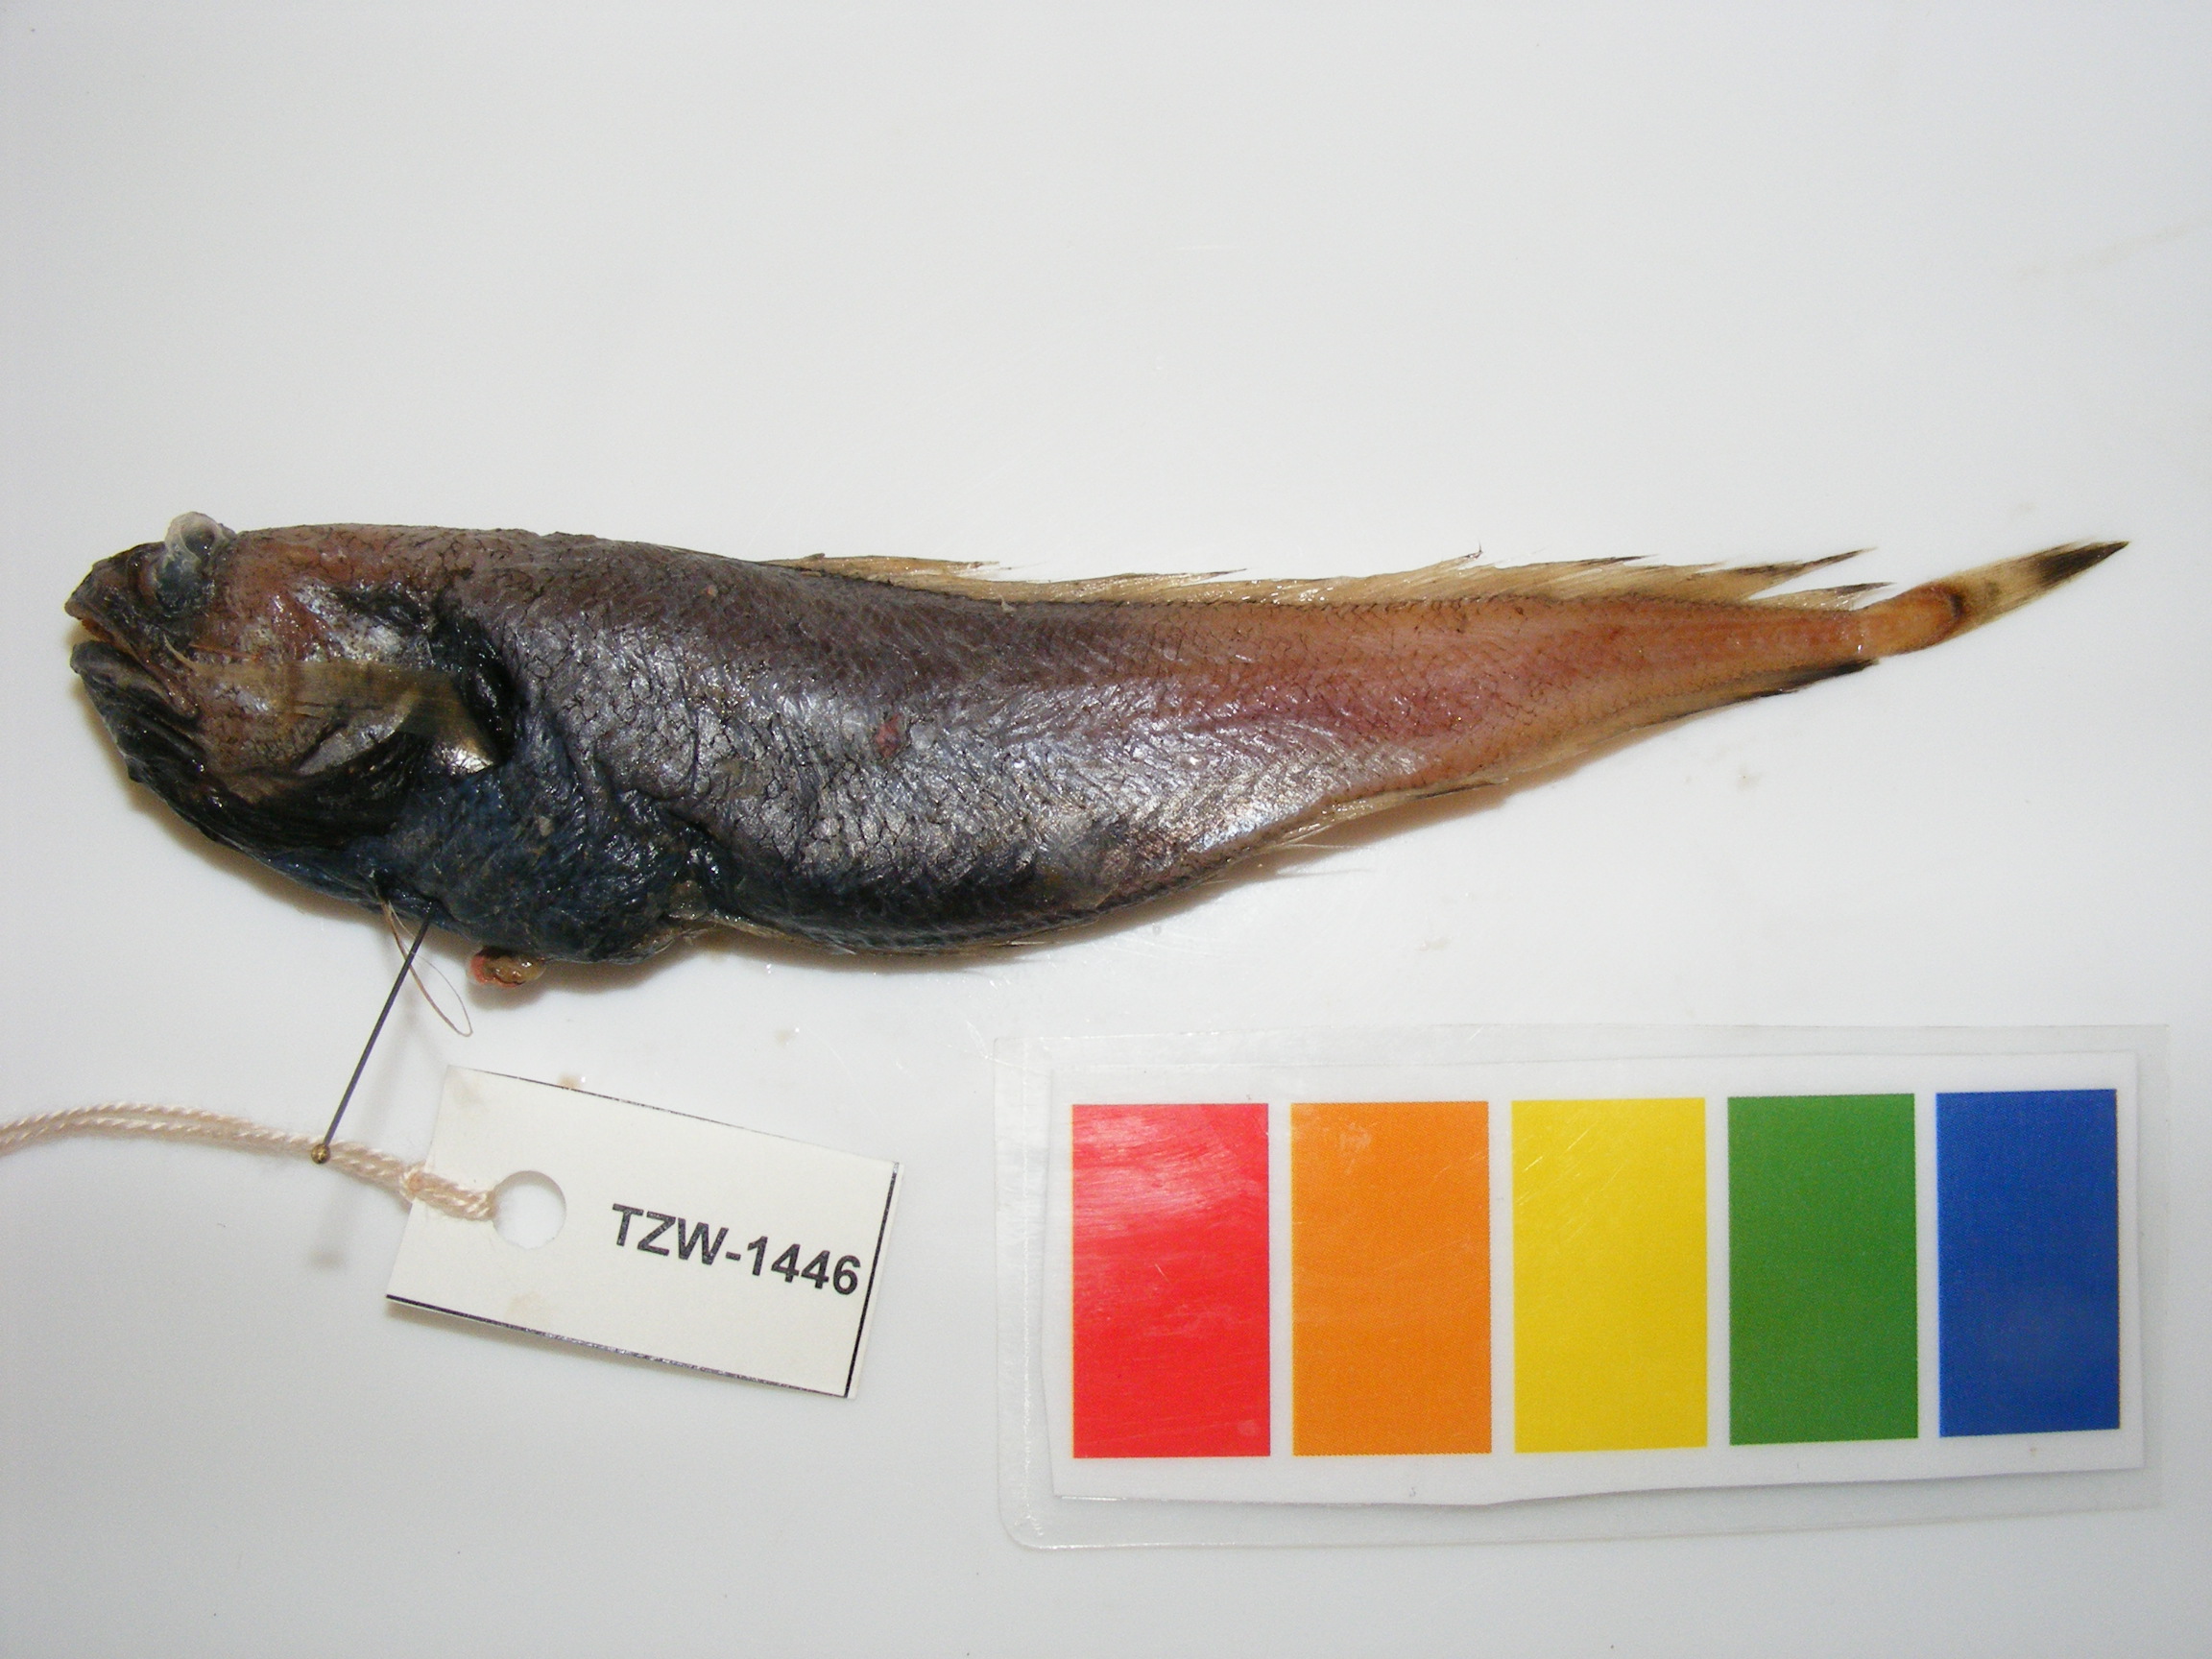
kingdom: Animalia
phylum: Chordata
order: Gadiformes
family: Moridae
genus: Physiculus
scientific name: Physiculus natalensis
